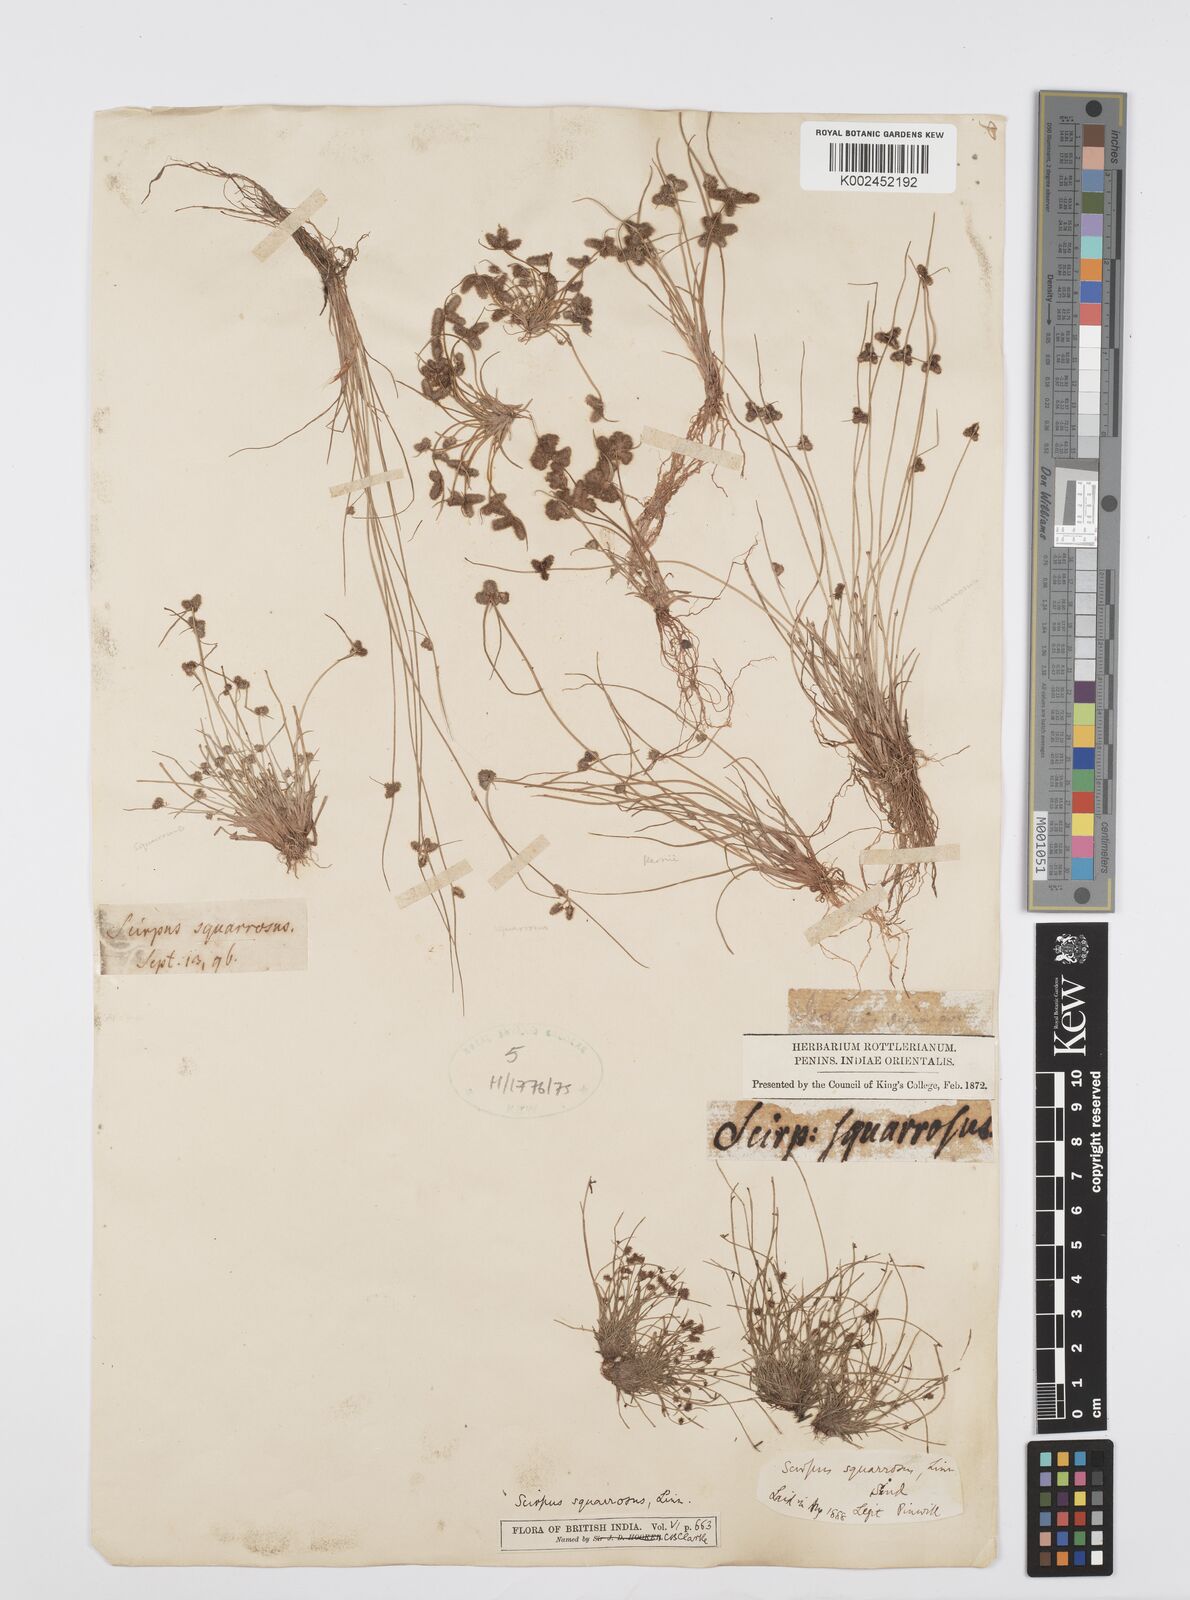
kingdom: Plantae
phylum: Tracheophyta
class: Liliopsida
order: Poales
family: Cyperaceae
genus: Cyperus
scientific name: Cyperus squarrosus
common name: Awned cyperus
